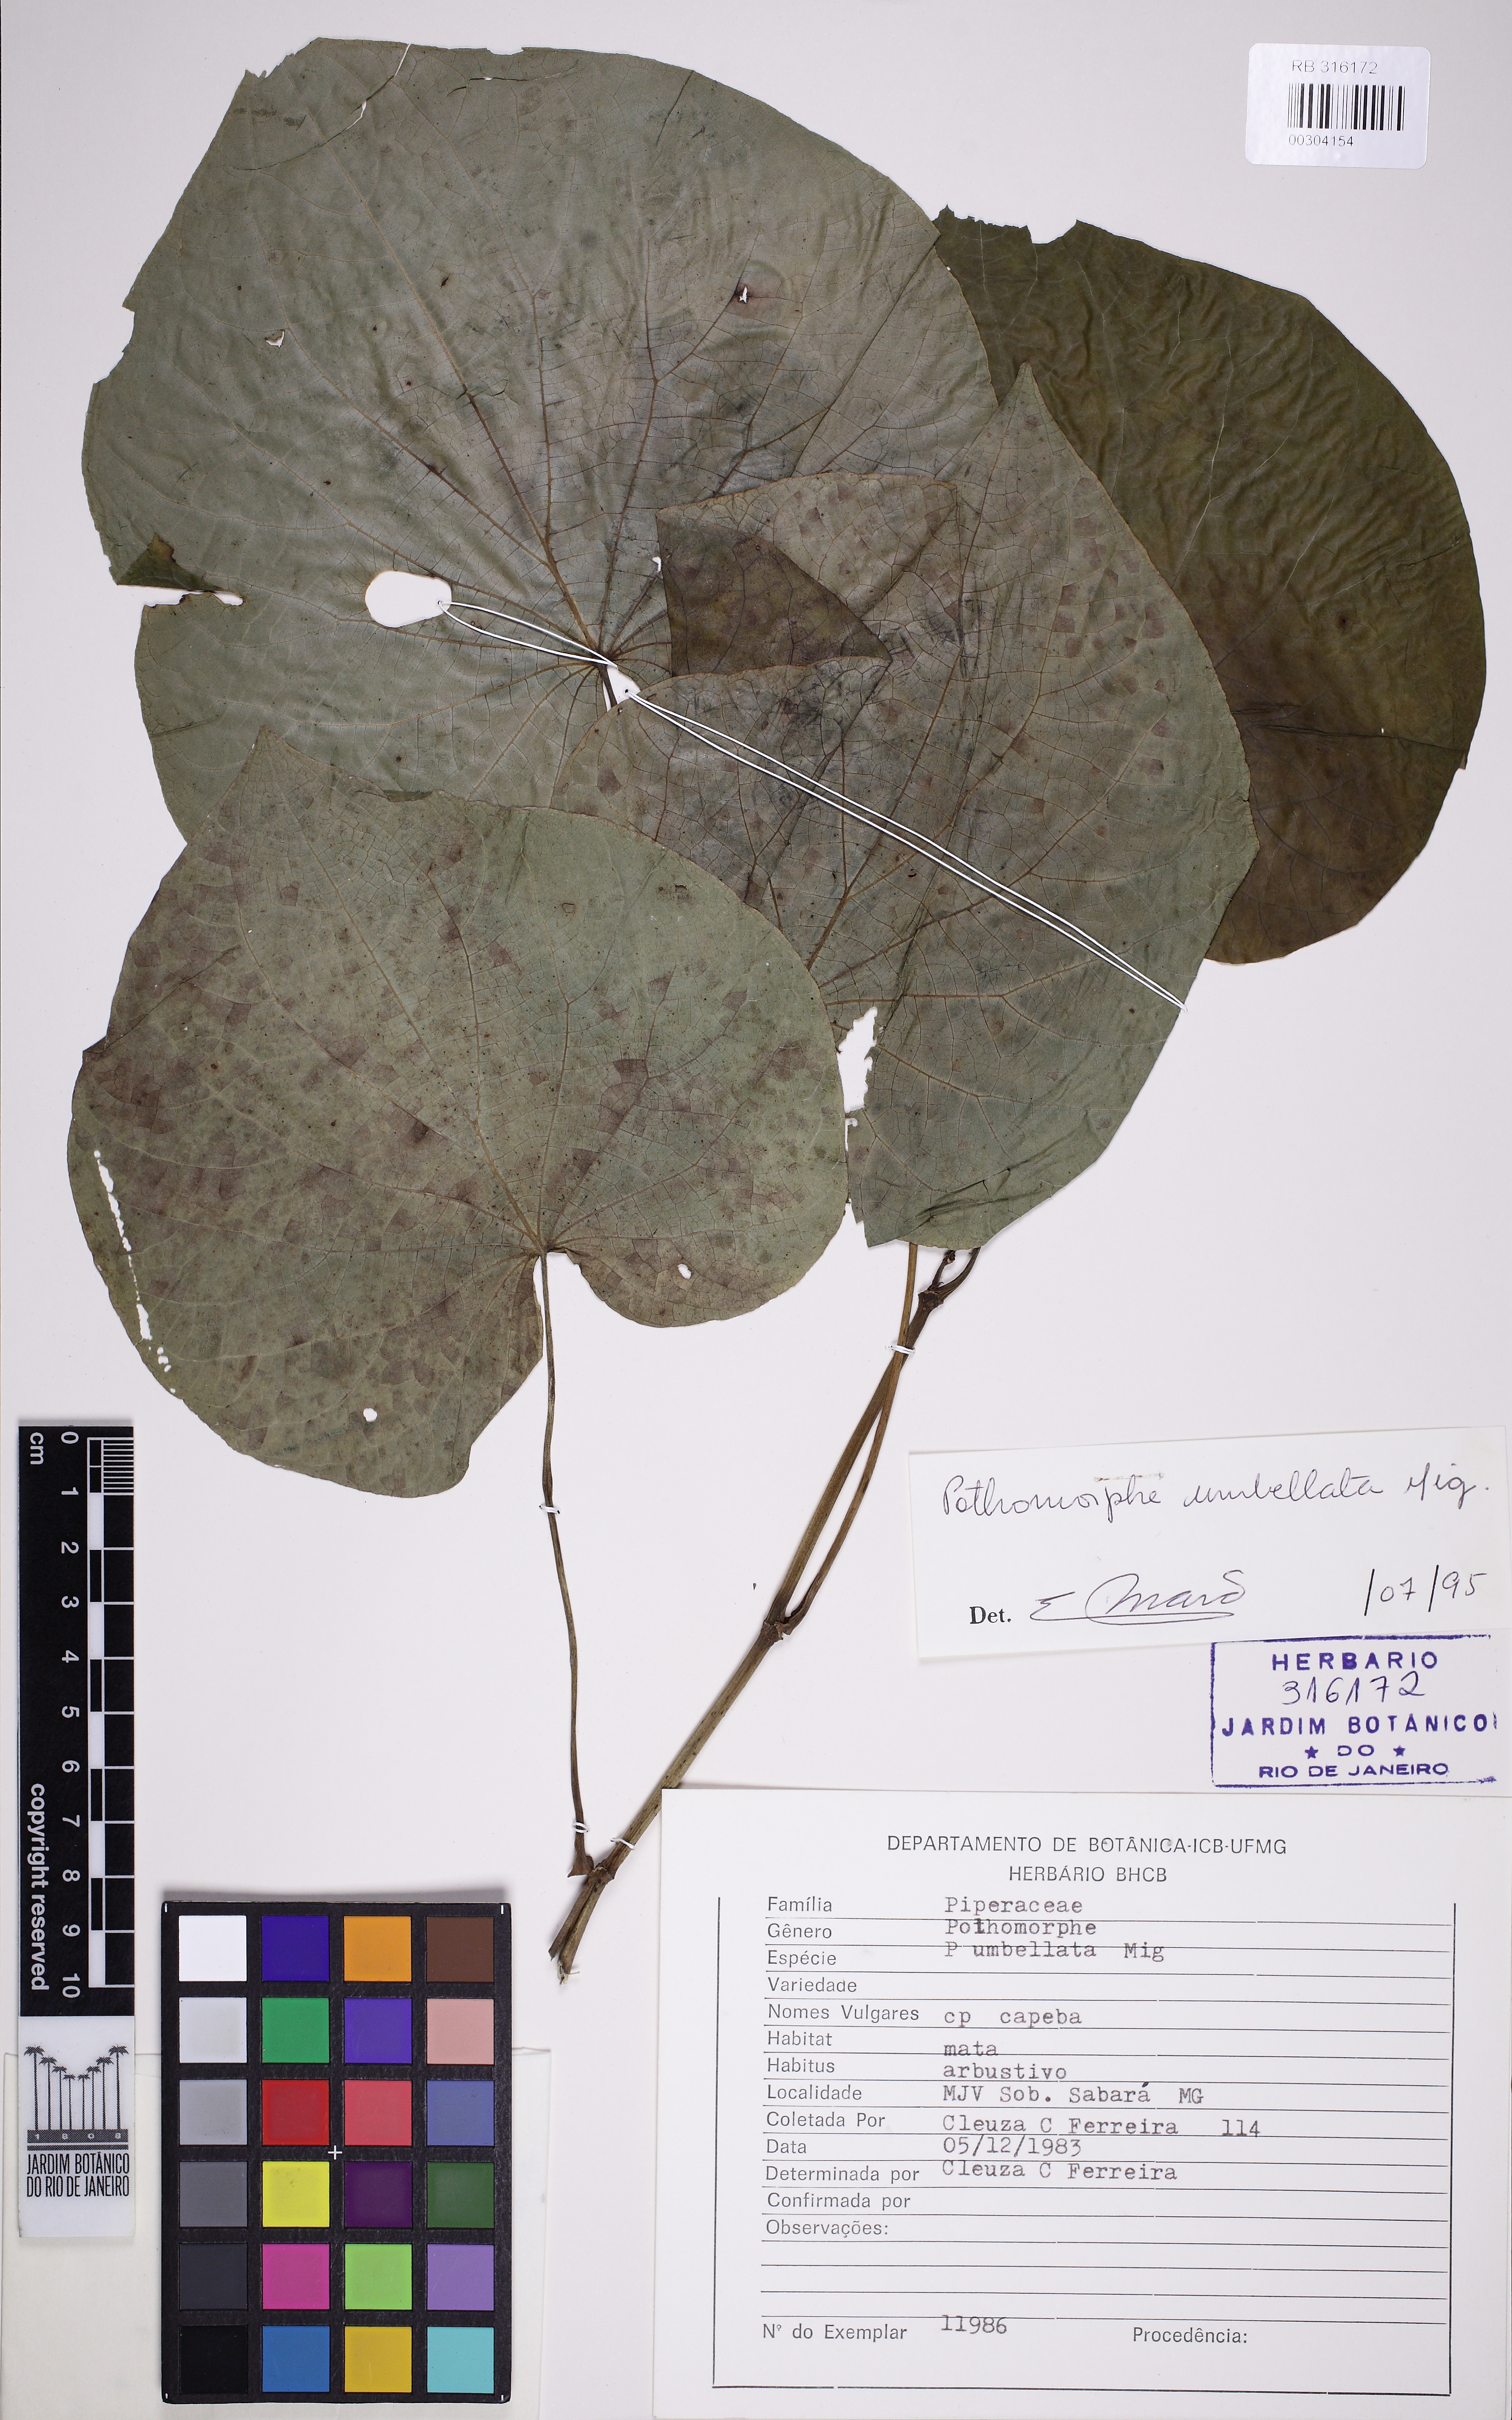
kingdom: Plantae
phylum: Tracheophyta
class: Magnoliopsida
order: Piperales
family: Piperaceae
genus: Piper
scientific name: Piper umbellatum
